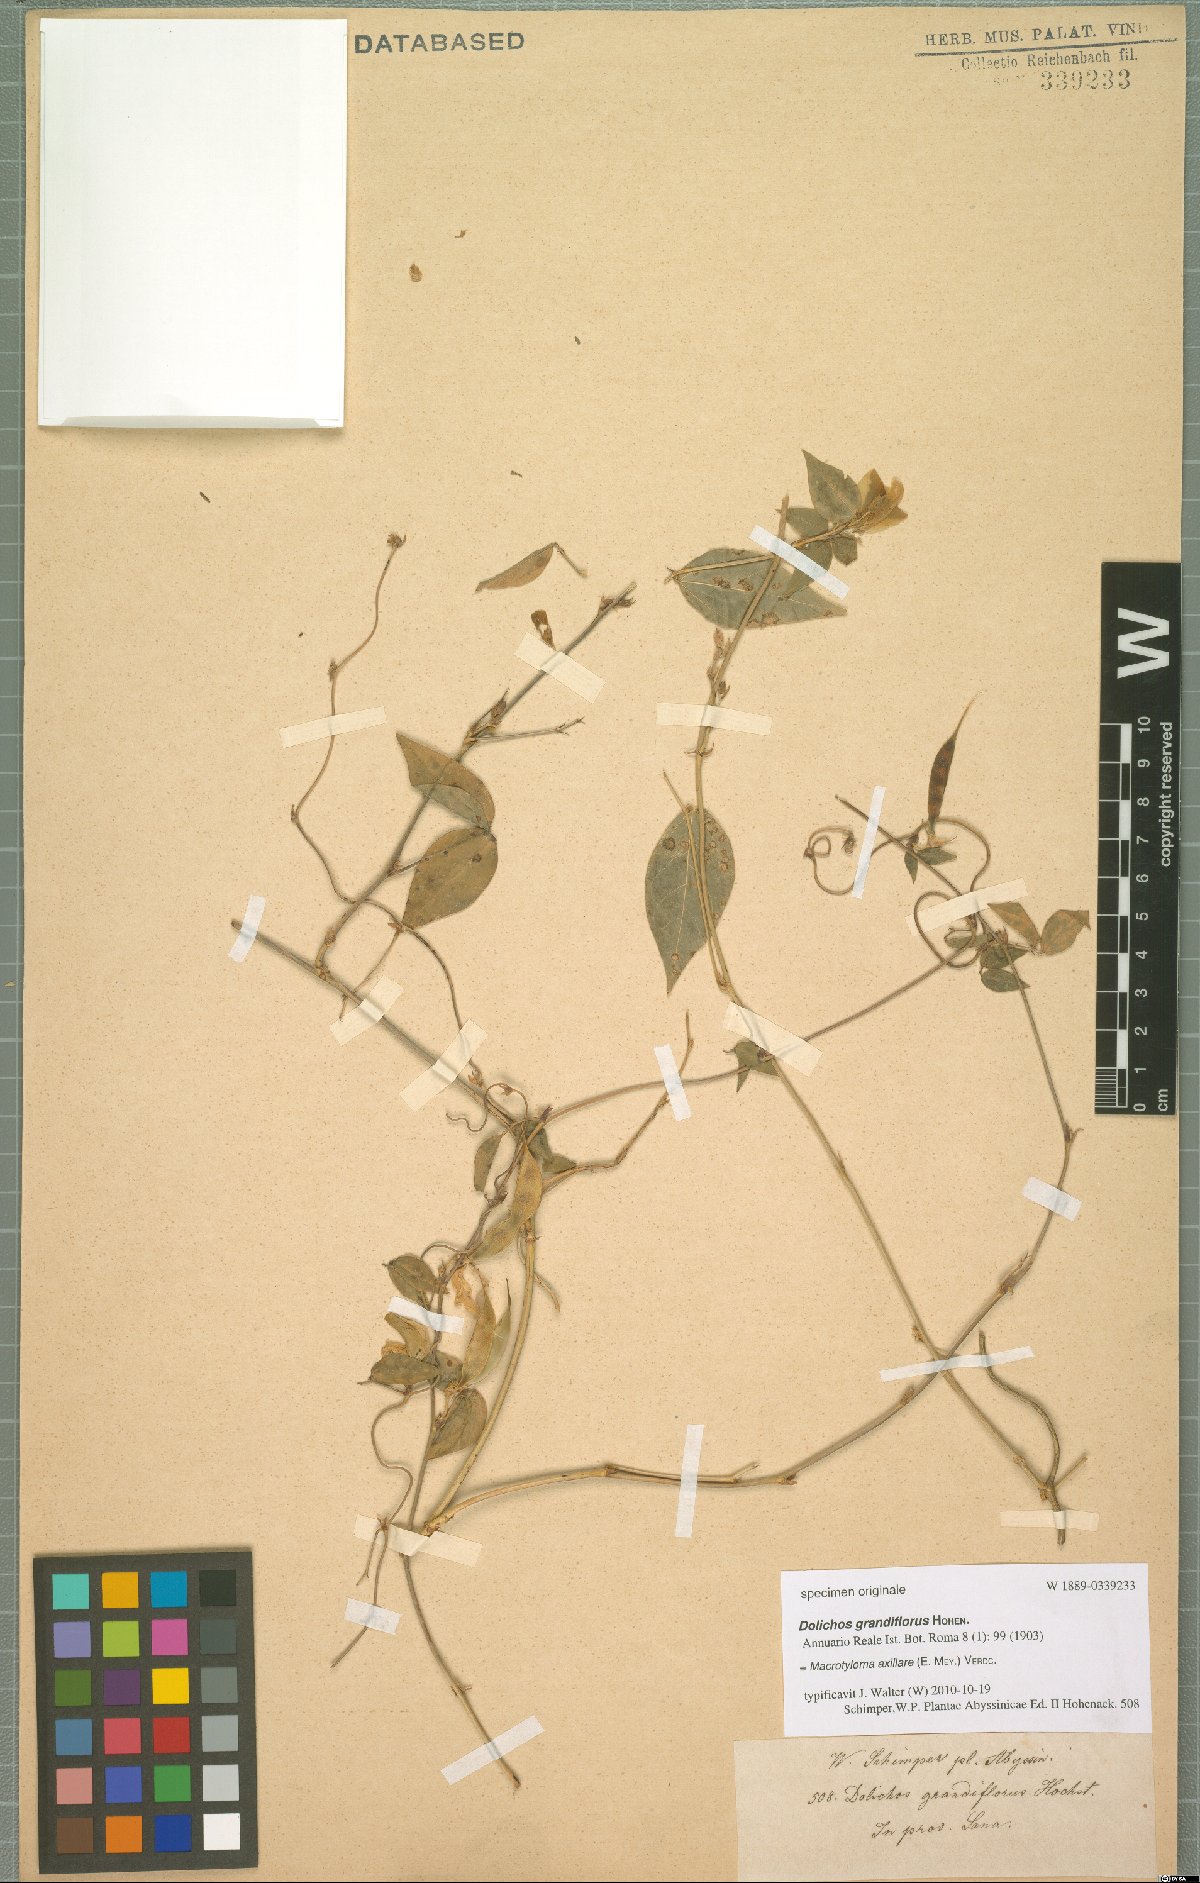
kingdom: Plantae
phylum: Tracheophyta
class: Magnoliopsida
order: Fabales
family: Fabaceae
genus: Macrotyloma
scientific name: Macrotyloma axillare
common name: Perennial horsegram
